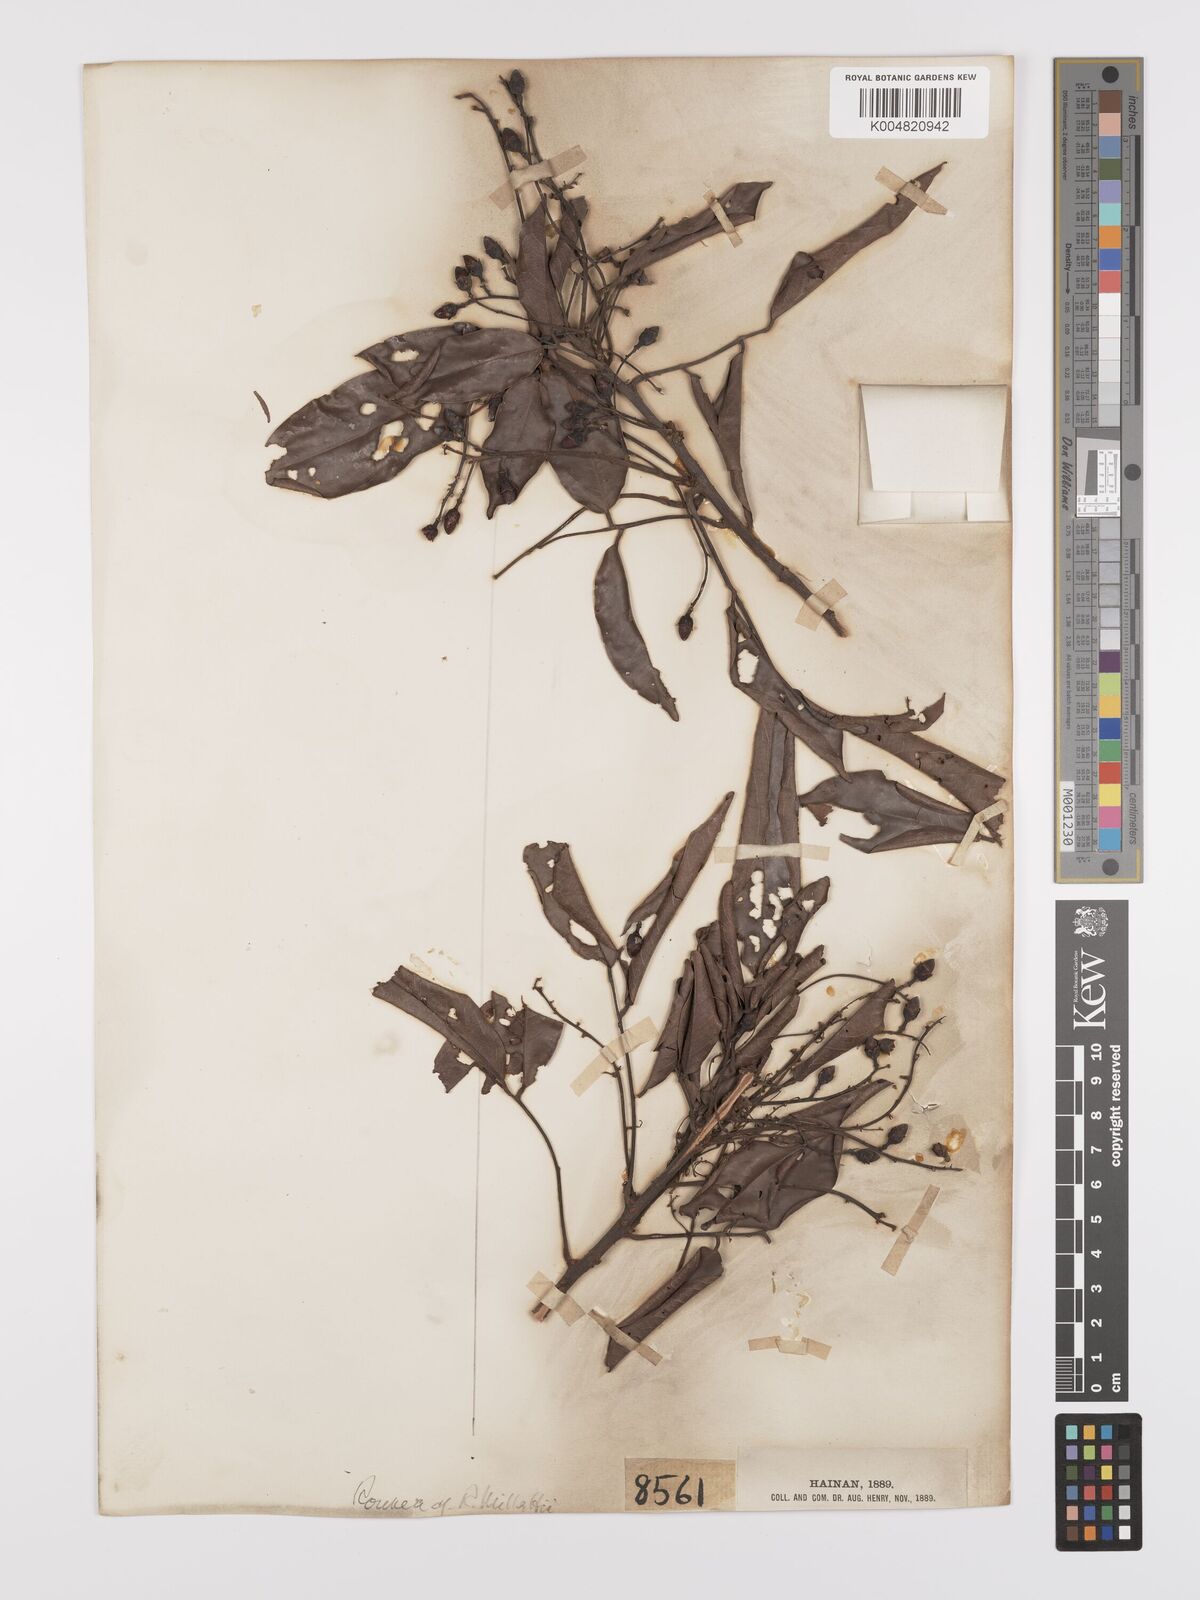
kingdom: Plantae
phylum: Tracheophyta
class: Magnoliopsida
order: Oxalidales
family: Connaraceae
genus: Rourea
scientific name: Rourea
